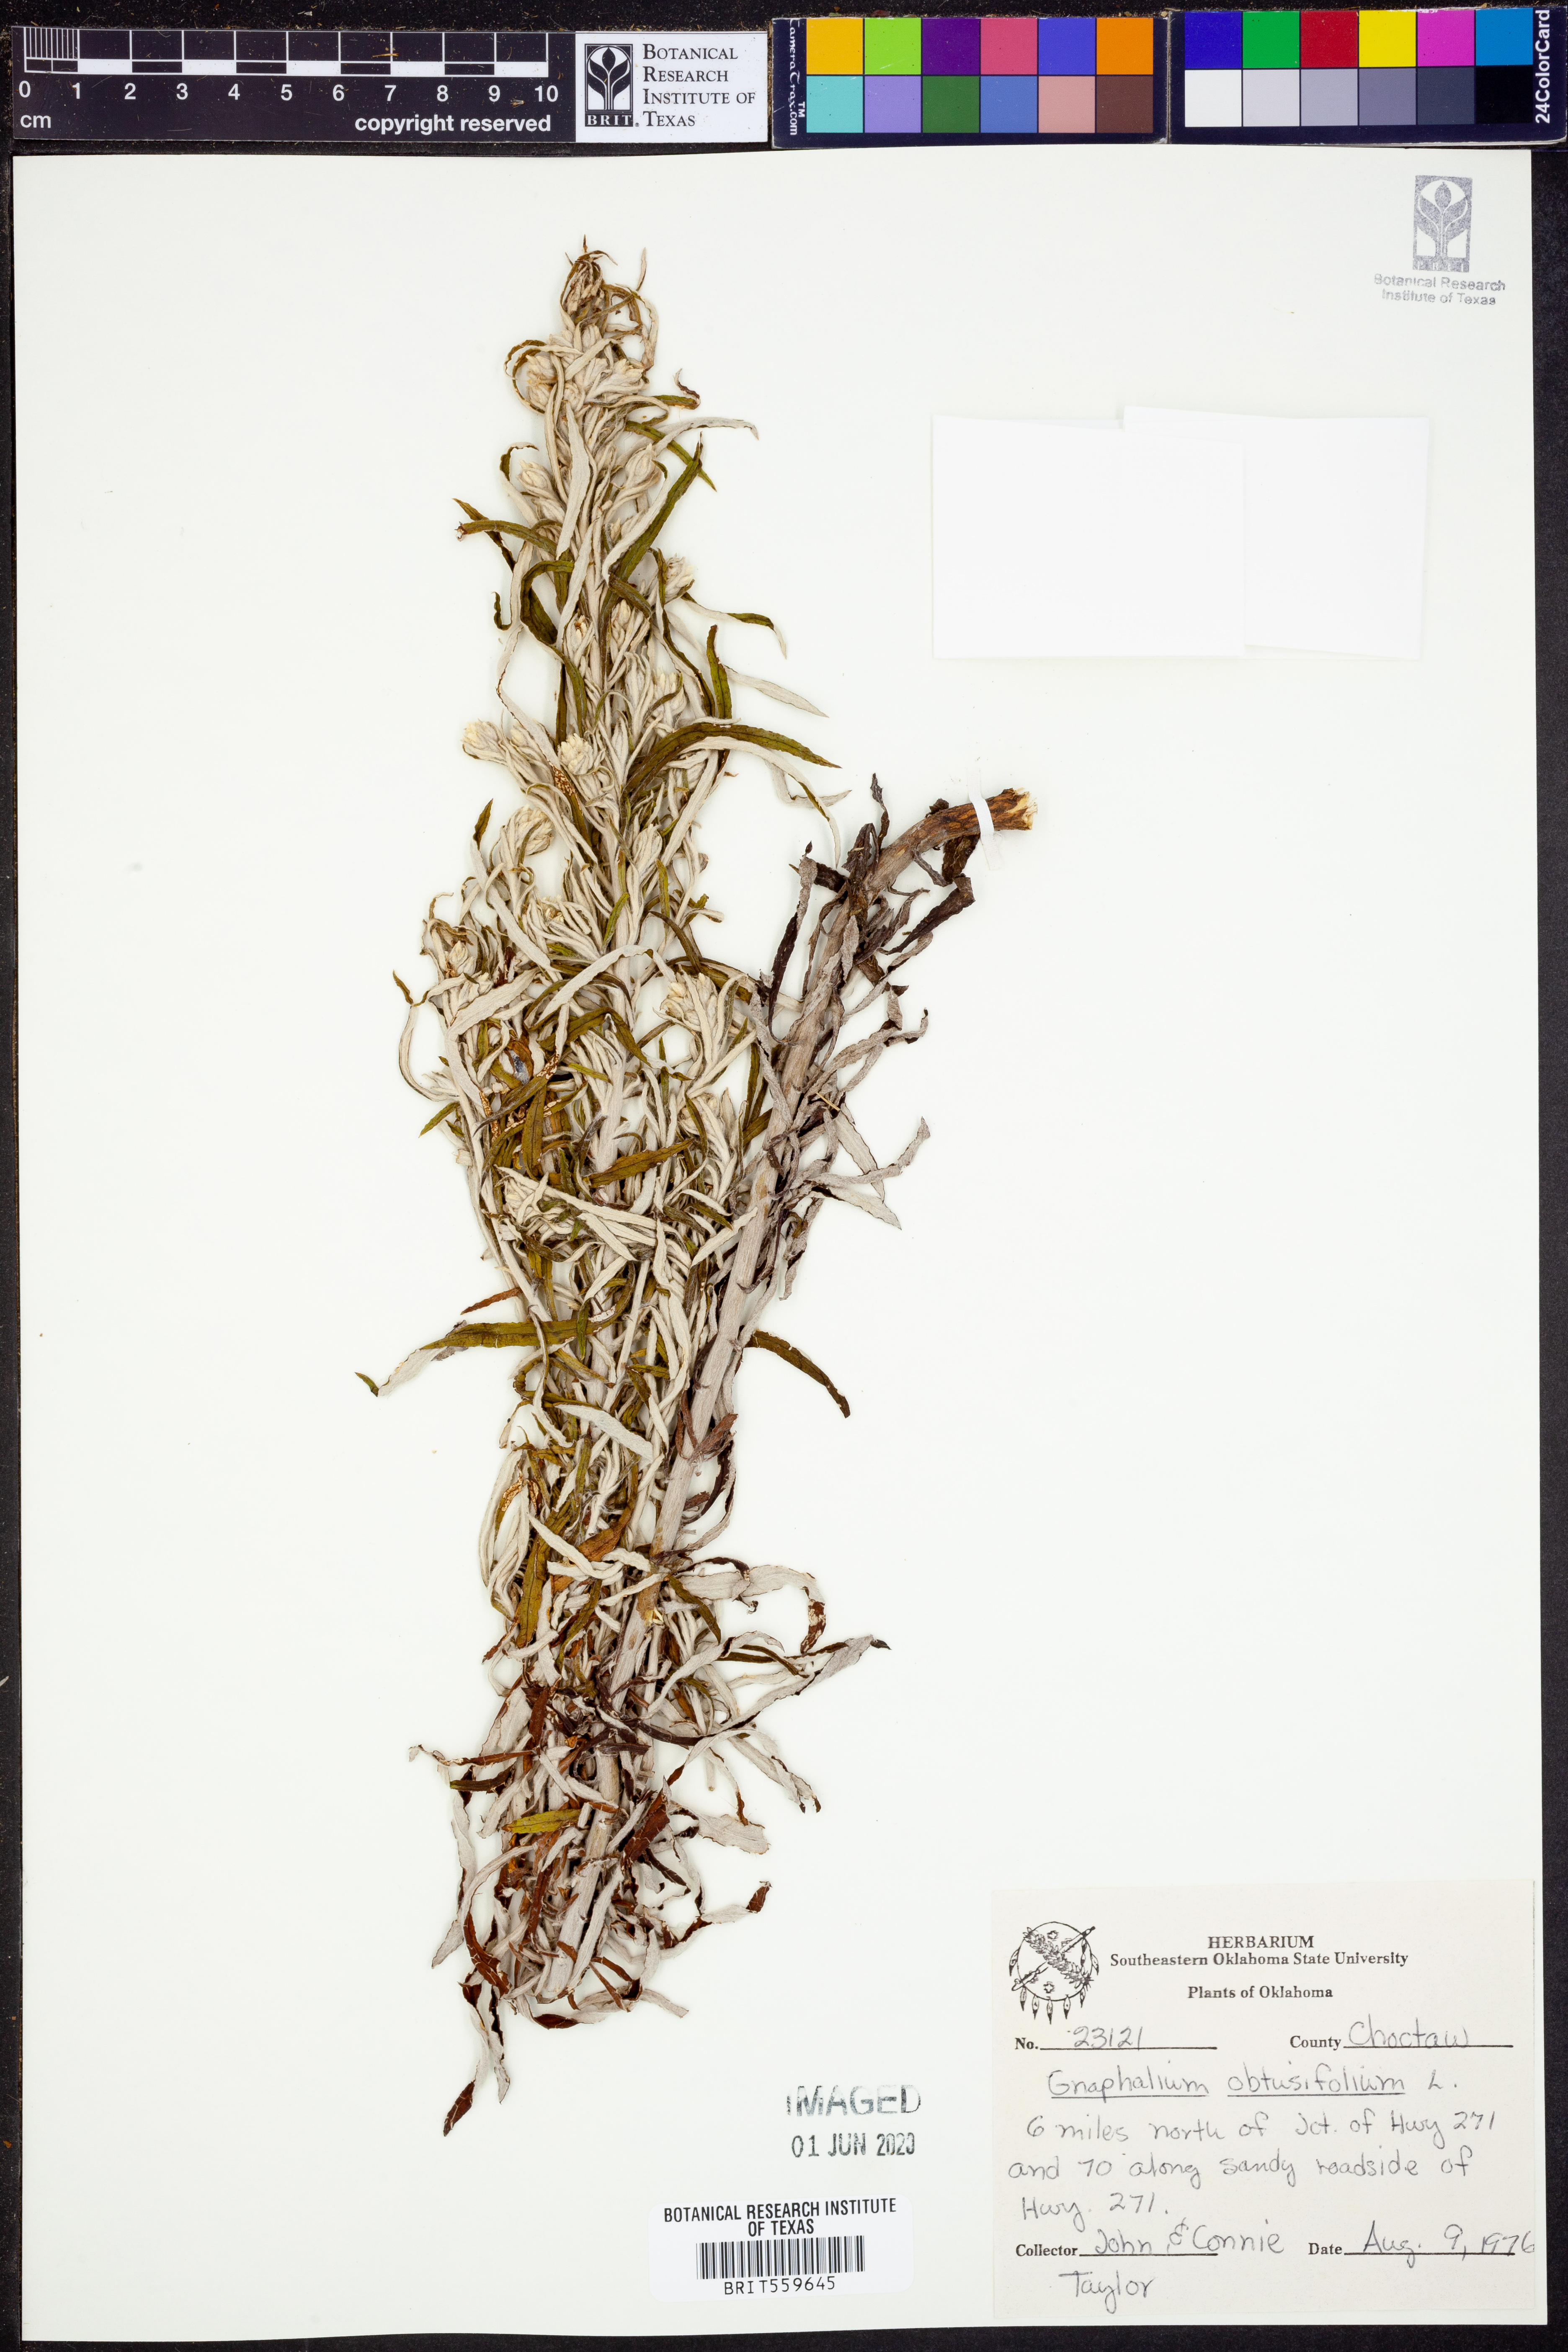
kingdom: Plantae
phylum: Tracheophyta
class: Magnoliopsida
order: Asterales
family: Asteraceae
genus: Pseudognaphalium
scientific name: Pseudognaphalium obtusifolium
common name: Eastern rabbit-tobacco
